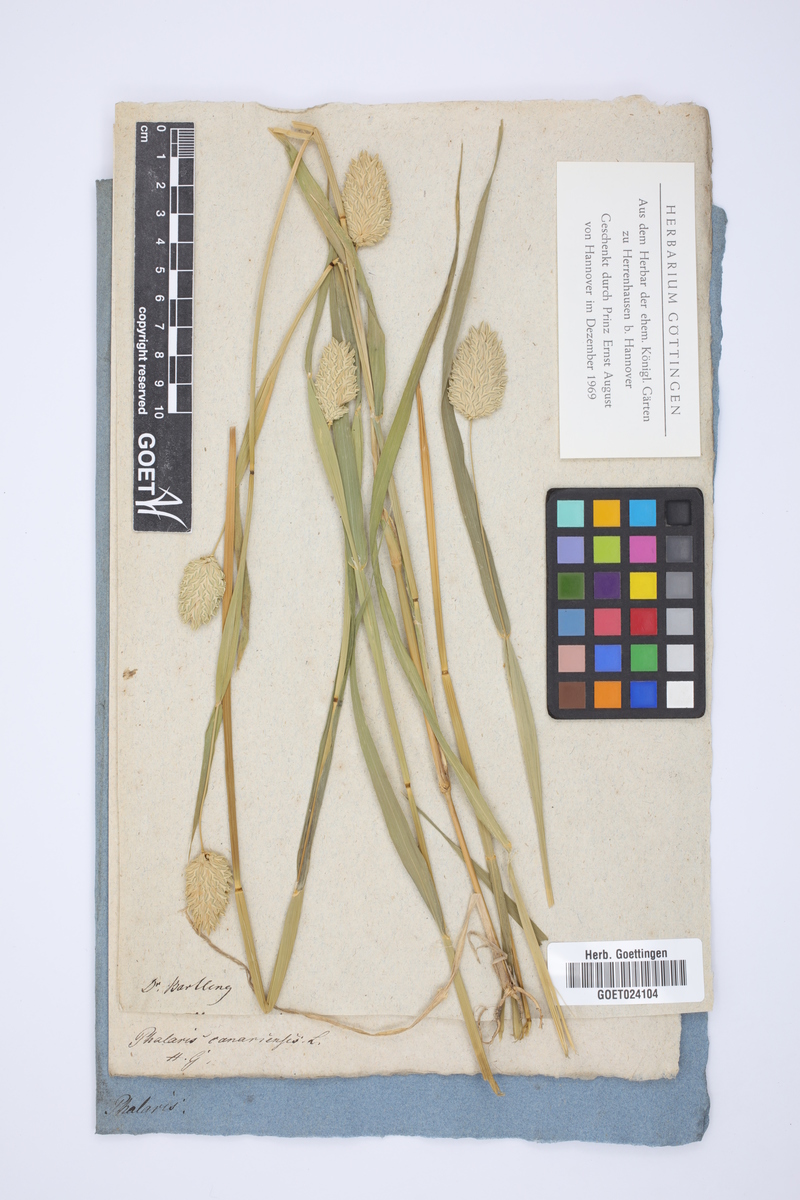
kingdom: Plantae
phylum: Tracheophyta
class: Liliopsida
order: Poales
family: Poaceae
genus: Phalaris
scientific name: Phalaris canariensis
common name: Annual canarygrass
